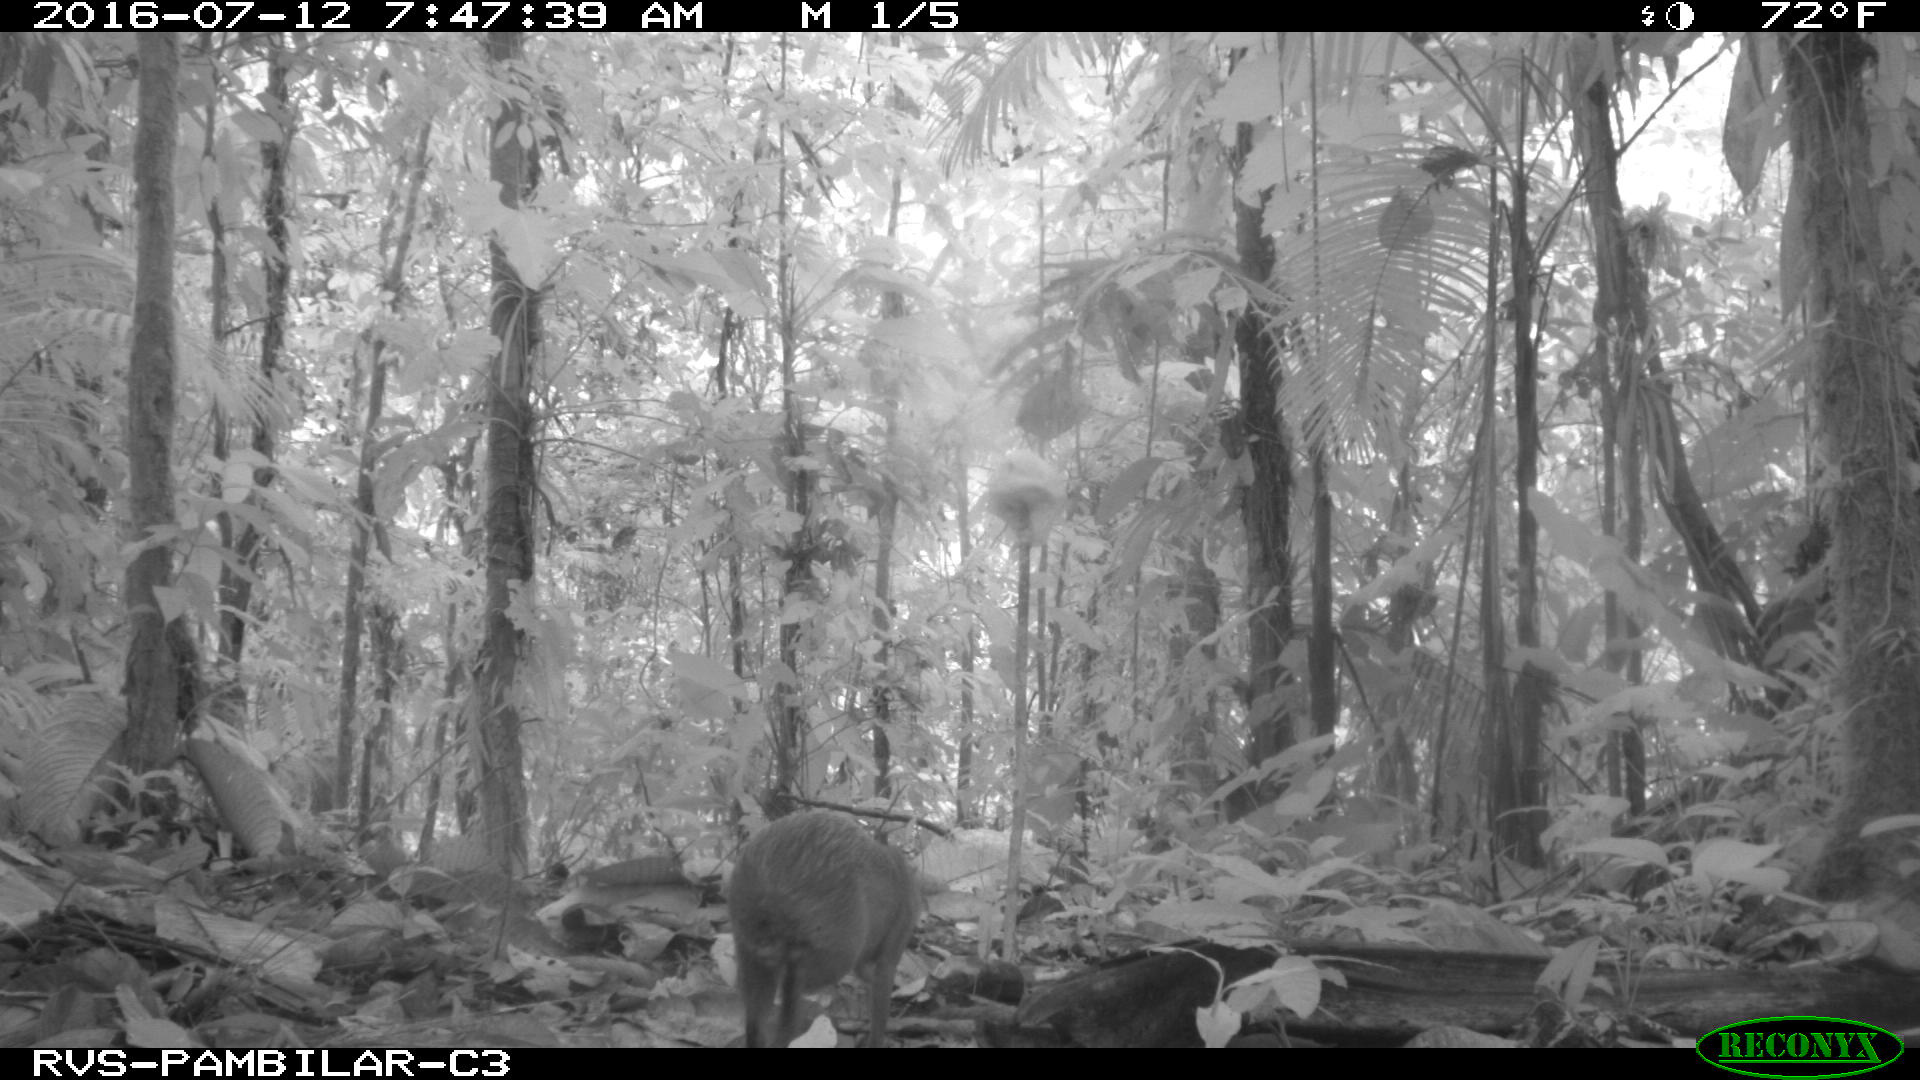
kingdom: Animalia
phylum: Chordata
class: Mammalia
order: Rodentia
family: Cuniculidae
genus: Cuniculus
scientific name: Cuniculus paca
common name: Lowland paca
